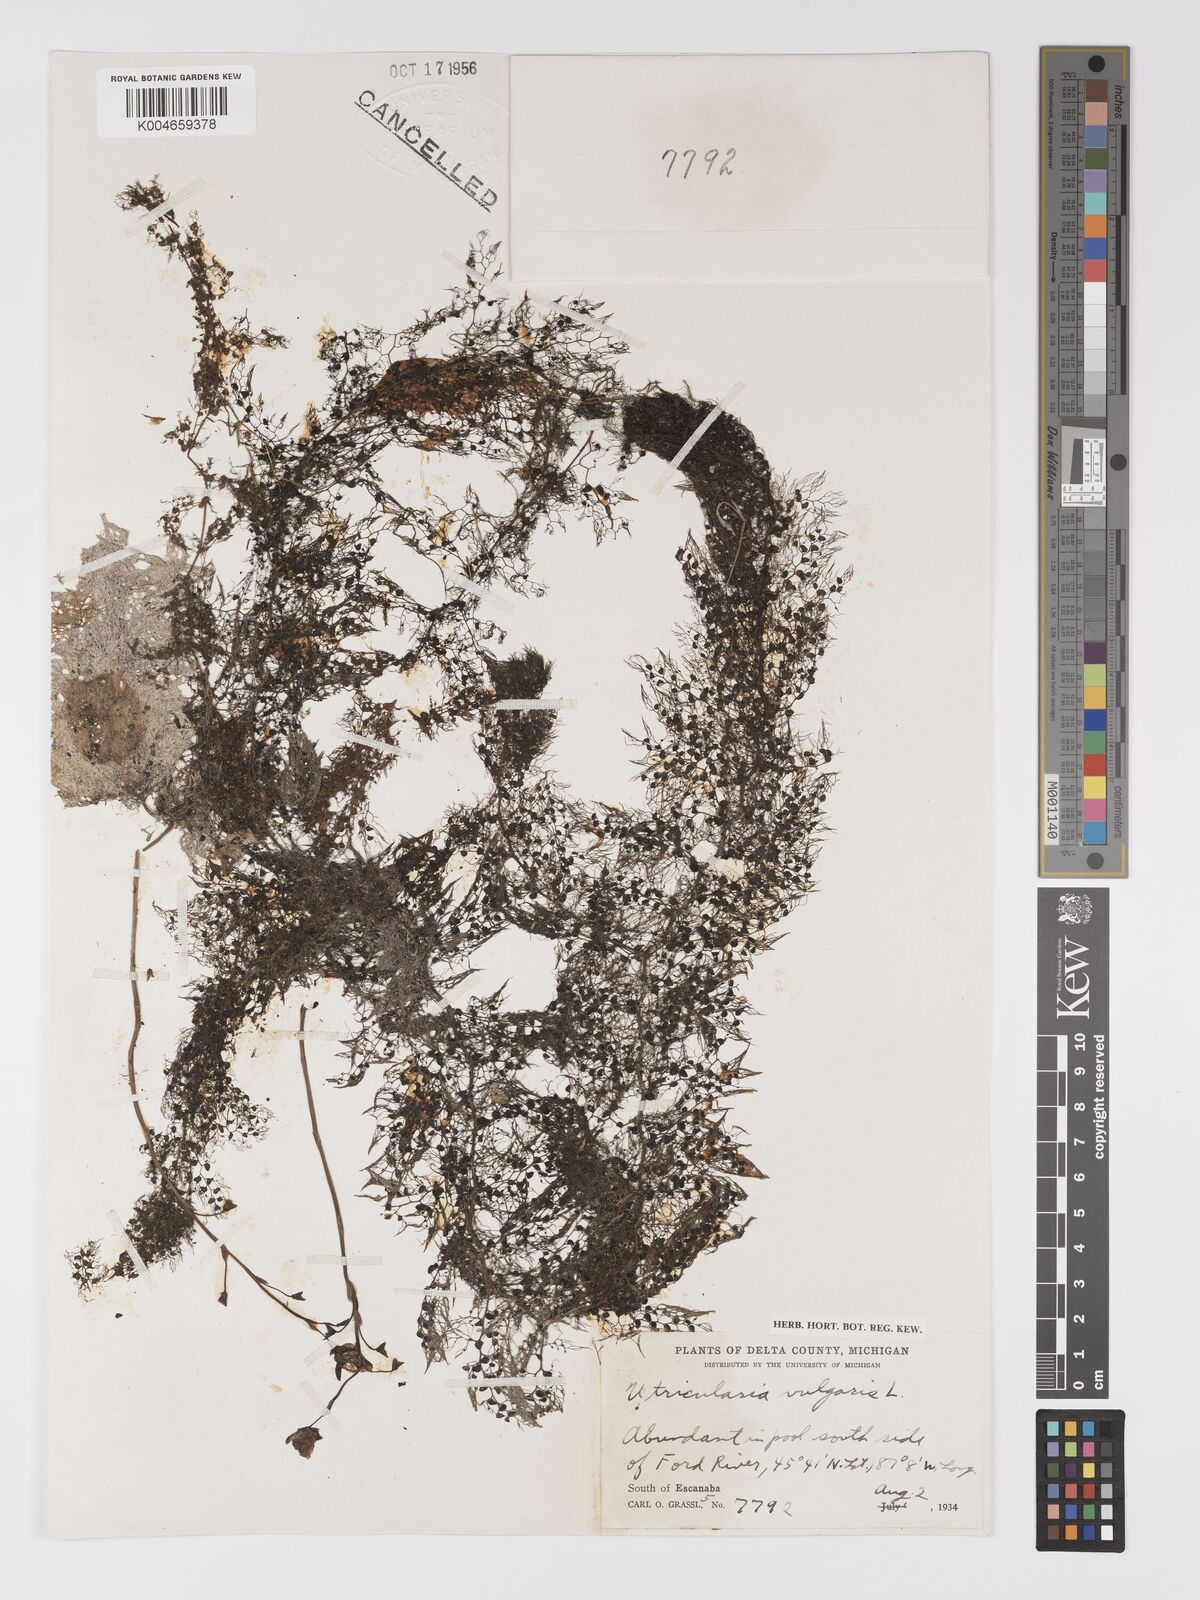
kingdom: Plantae
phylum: Tracheophyta
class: Magnoliopsida
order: Lamiales
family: Lentibulariaceae
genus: Utricularia
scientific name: Utricularia macrorhiza
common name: Common bladderwort
